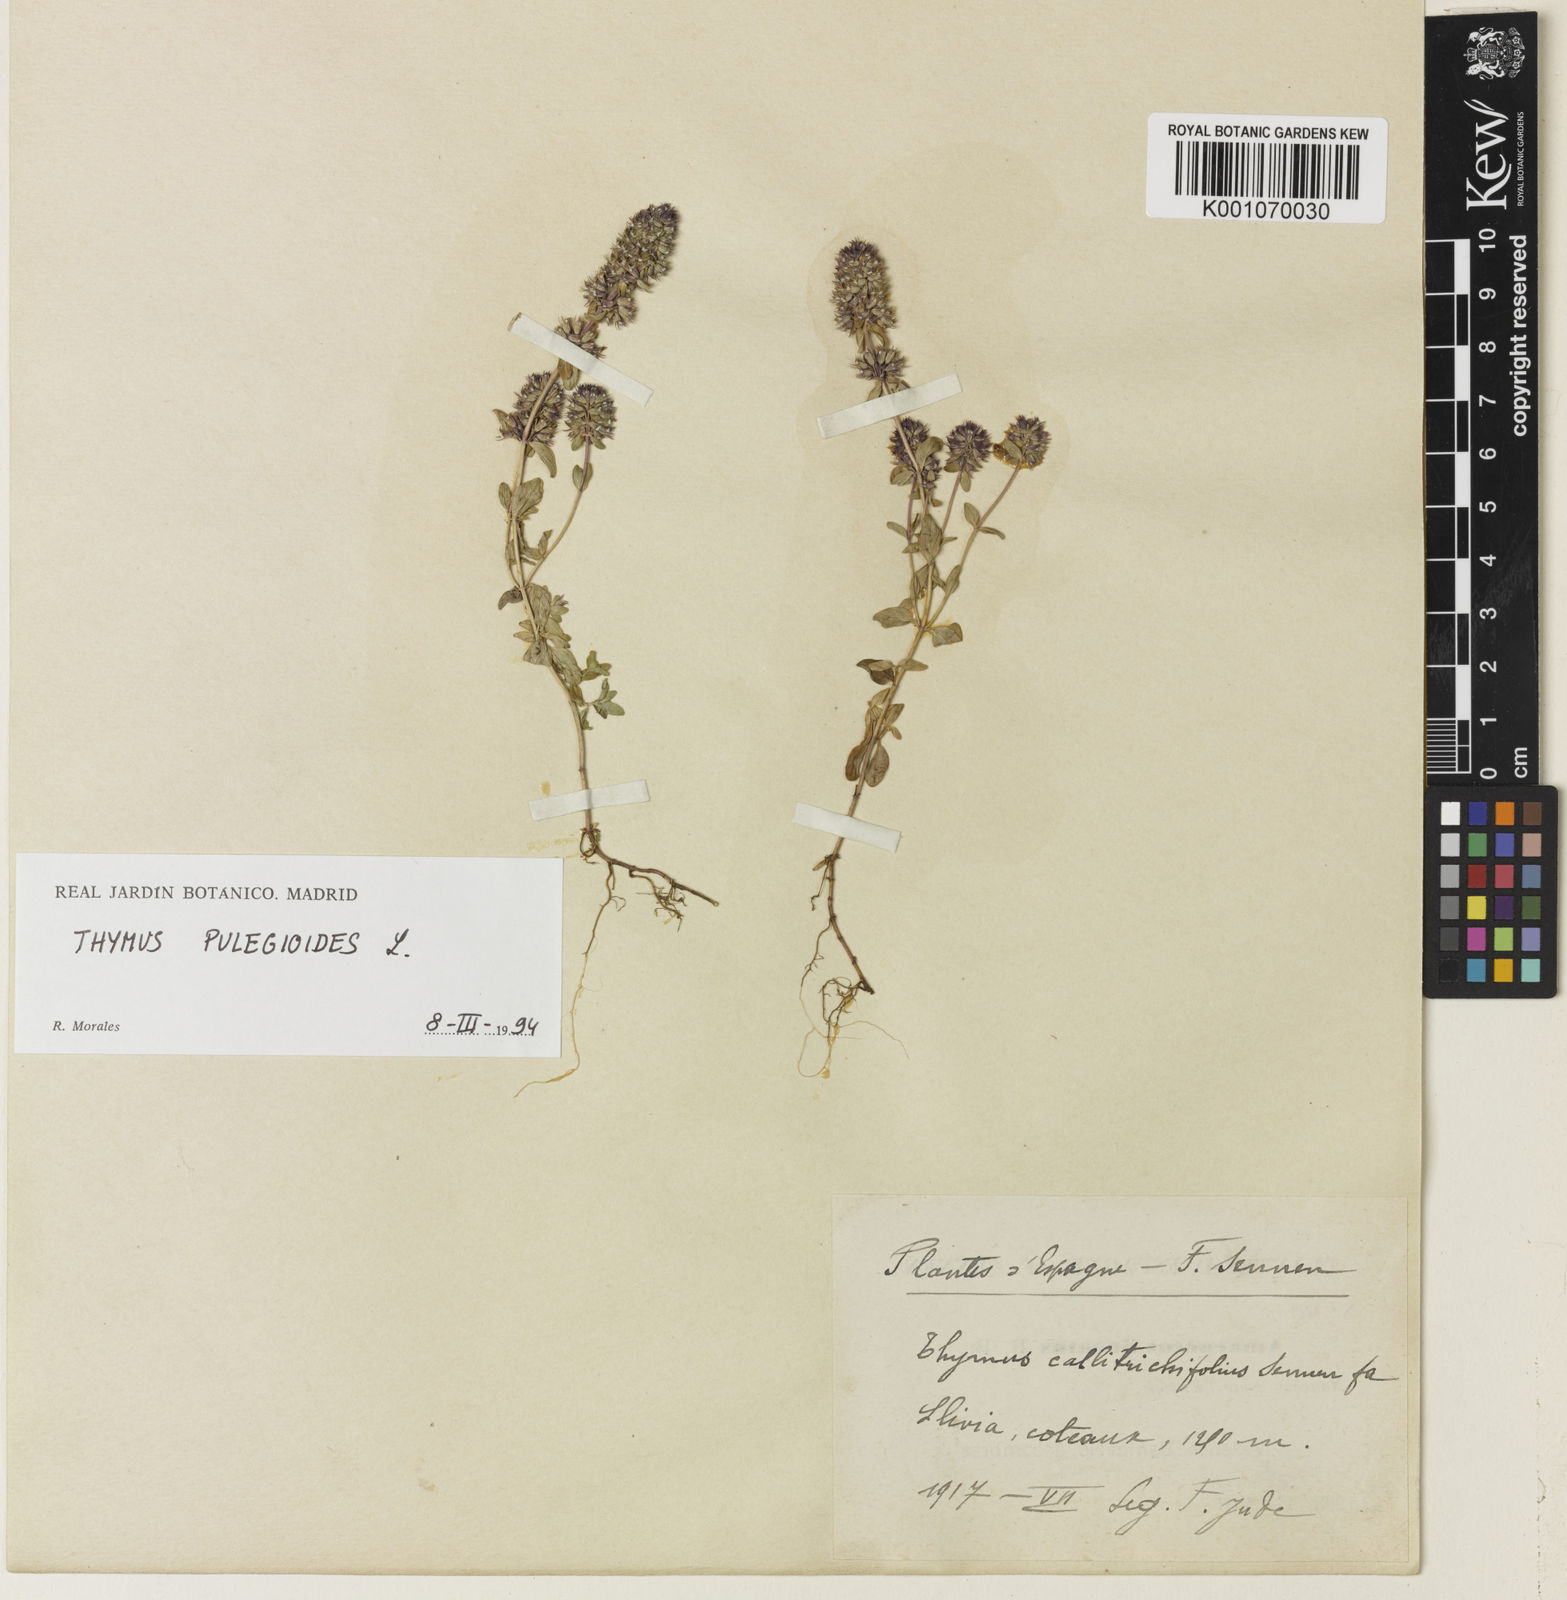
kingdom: Plantae
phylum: Tracheophyta
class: Magnoliopsida
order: Lamiales
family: Lamiaceae
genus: Thymus
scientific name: Thymus pulegioides
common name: Large thyme
